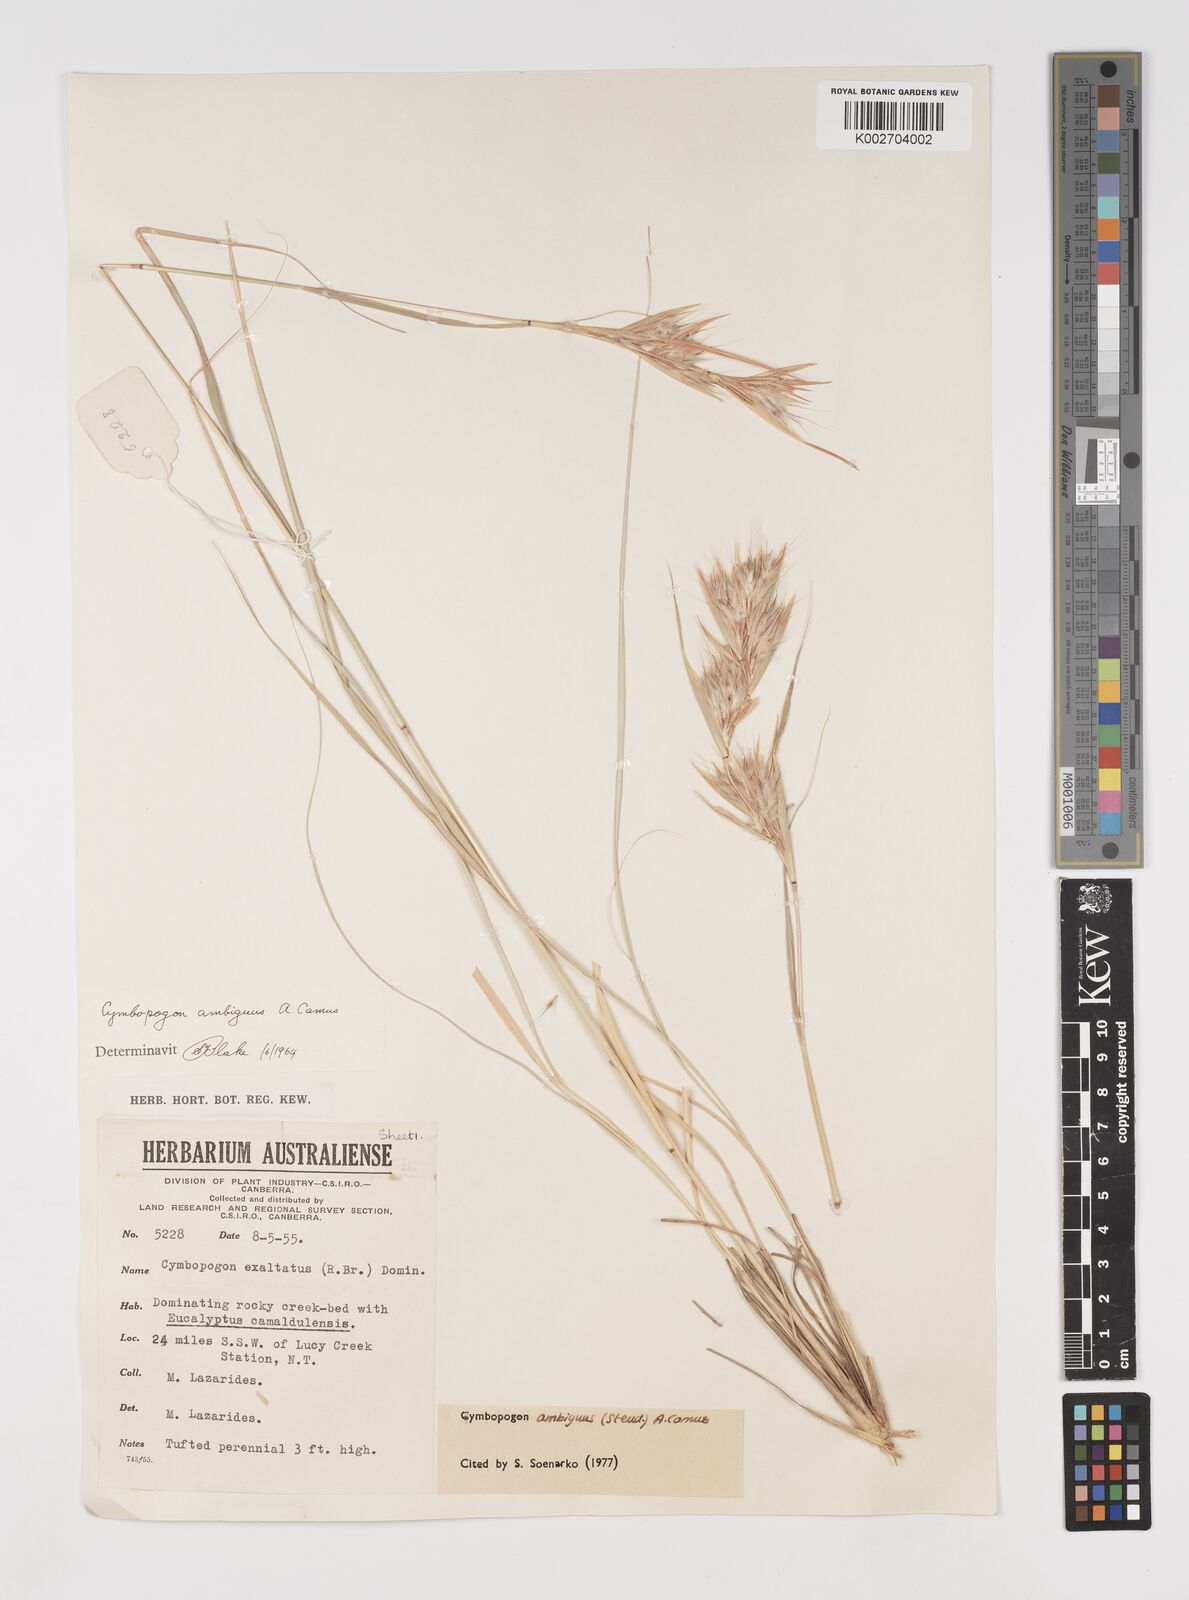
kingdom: Plantae
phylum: Tracheophyta
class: Liliopsida
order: Poales
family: Poaceae
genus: Cymbopogon
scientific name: Cymbopogon ambiguus
